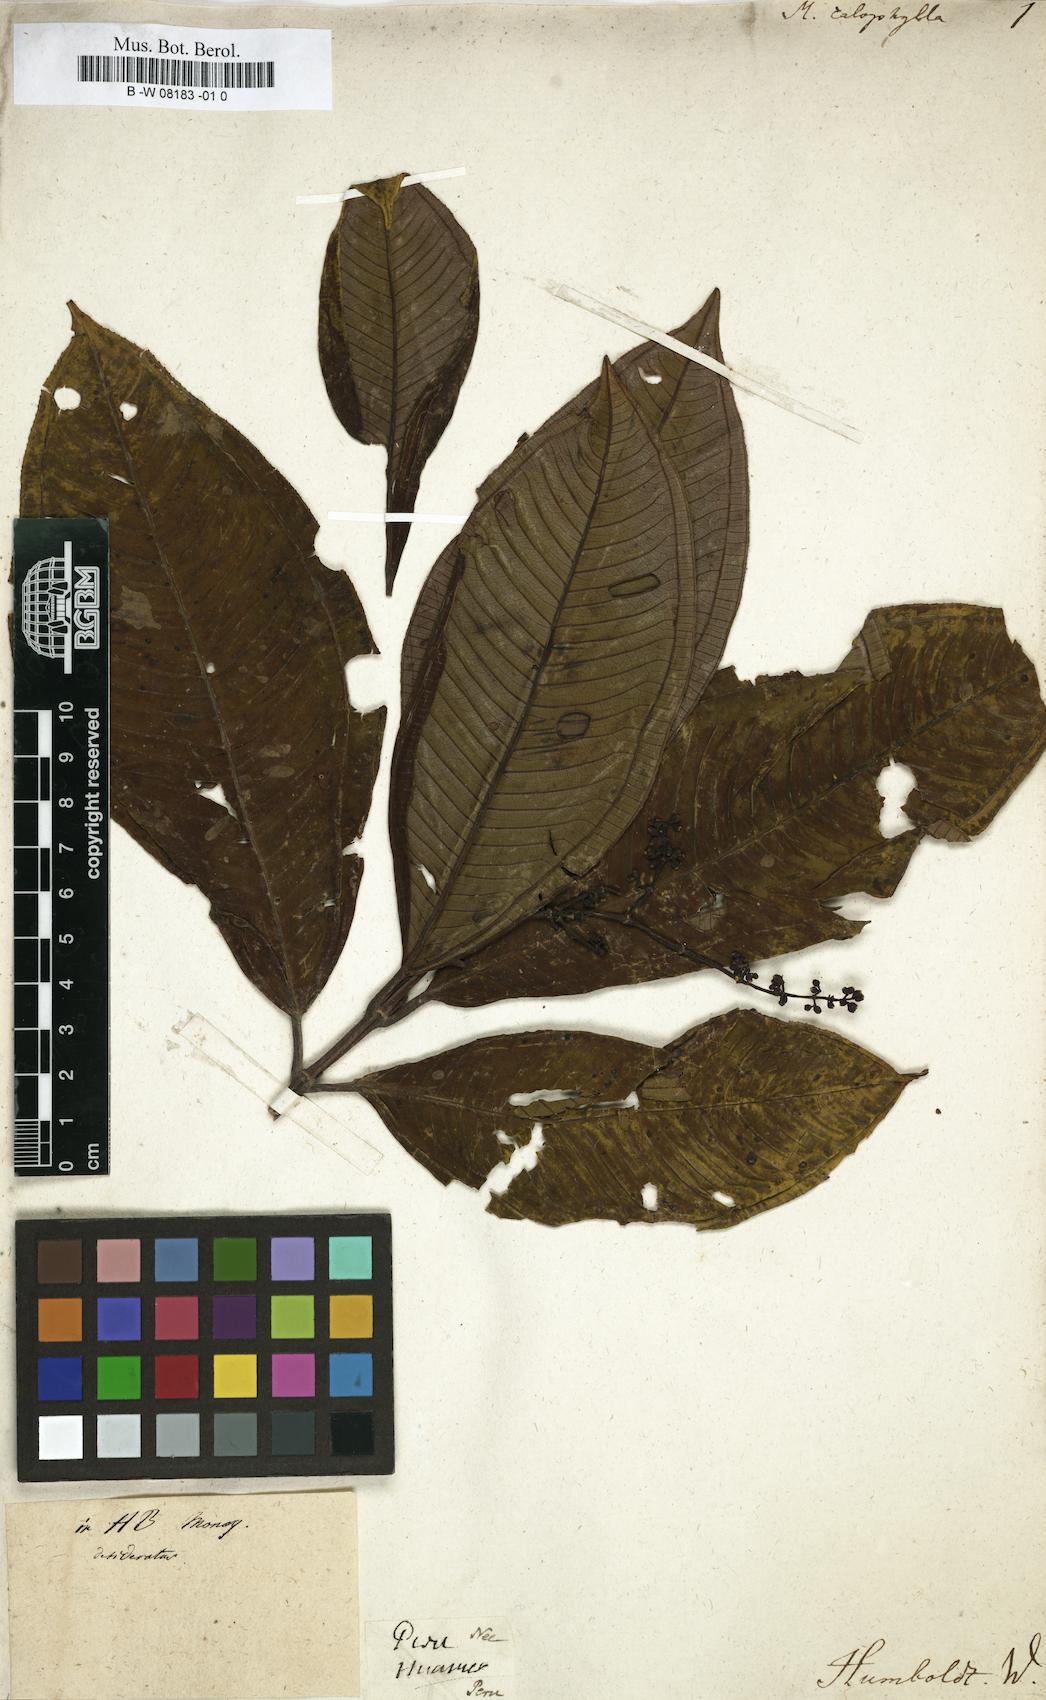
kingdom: Plantae
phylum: Tracheophyta
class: Magnoliopsida
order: Myrtales
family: Melastomataceae
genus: Melastoma
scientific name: Melastoma
